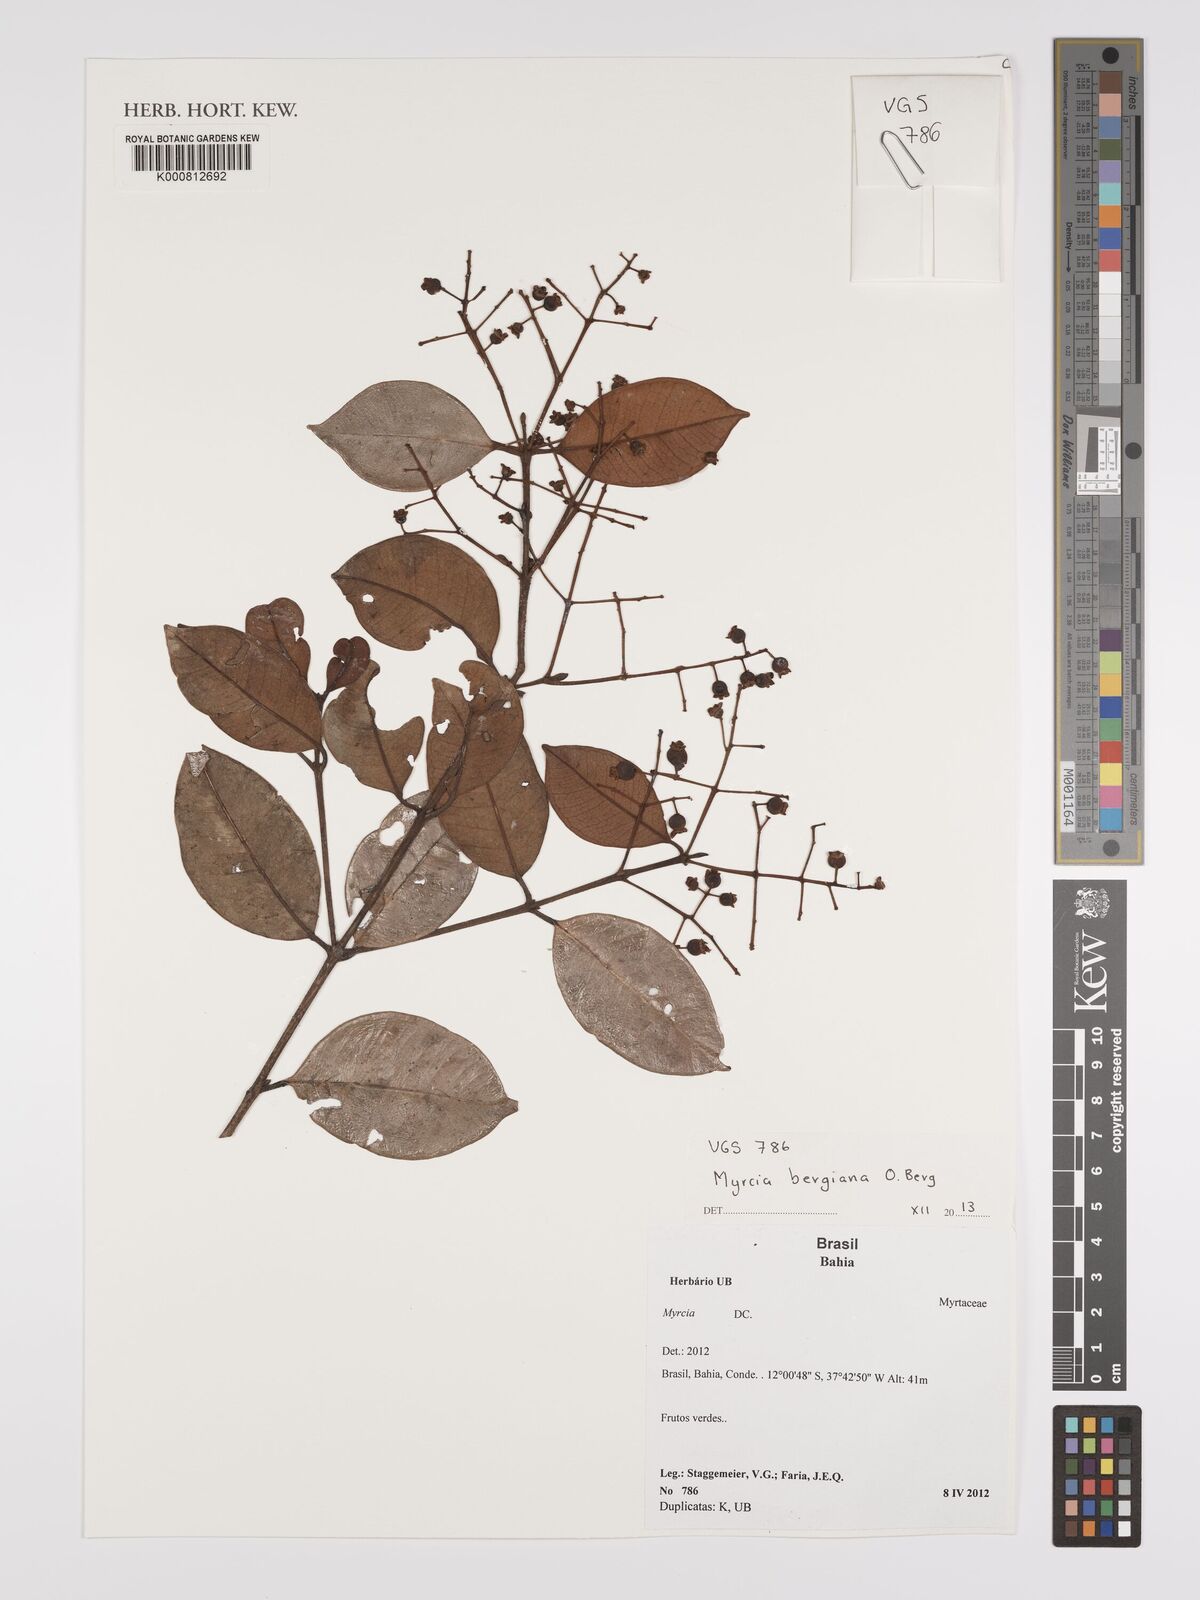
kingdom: Plantae
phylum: Tracheophyta
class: Magnoliopsida
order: Myrtales
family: Myrtaceae
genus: Myrcia
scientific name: Myrcia bergiana
